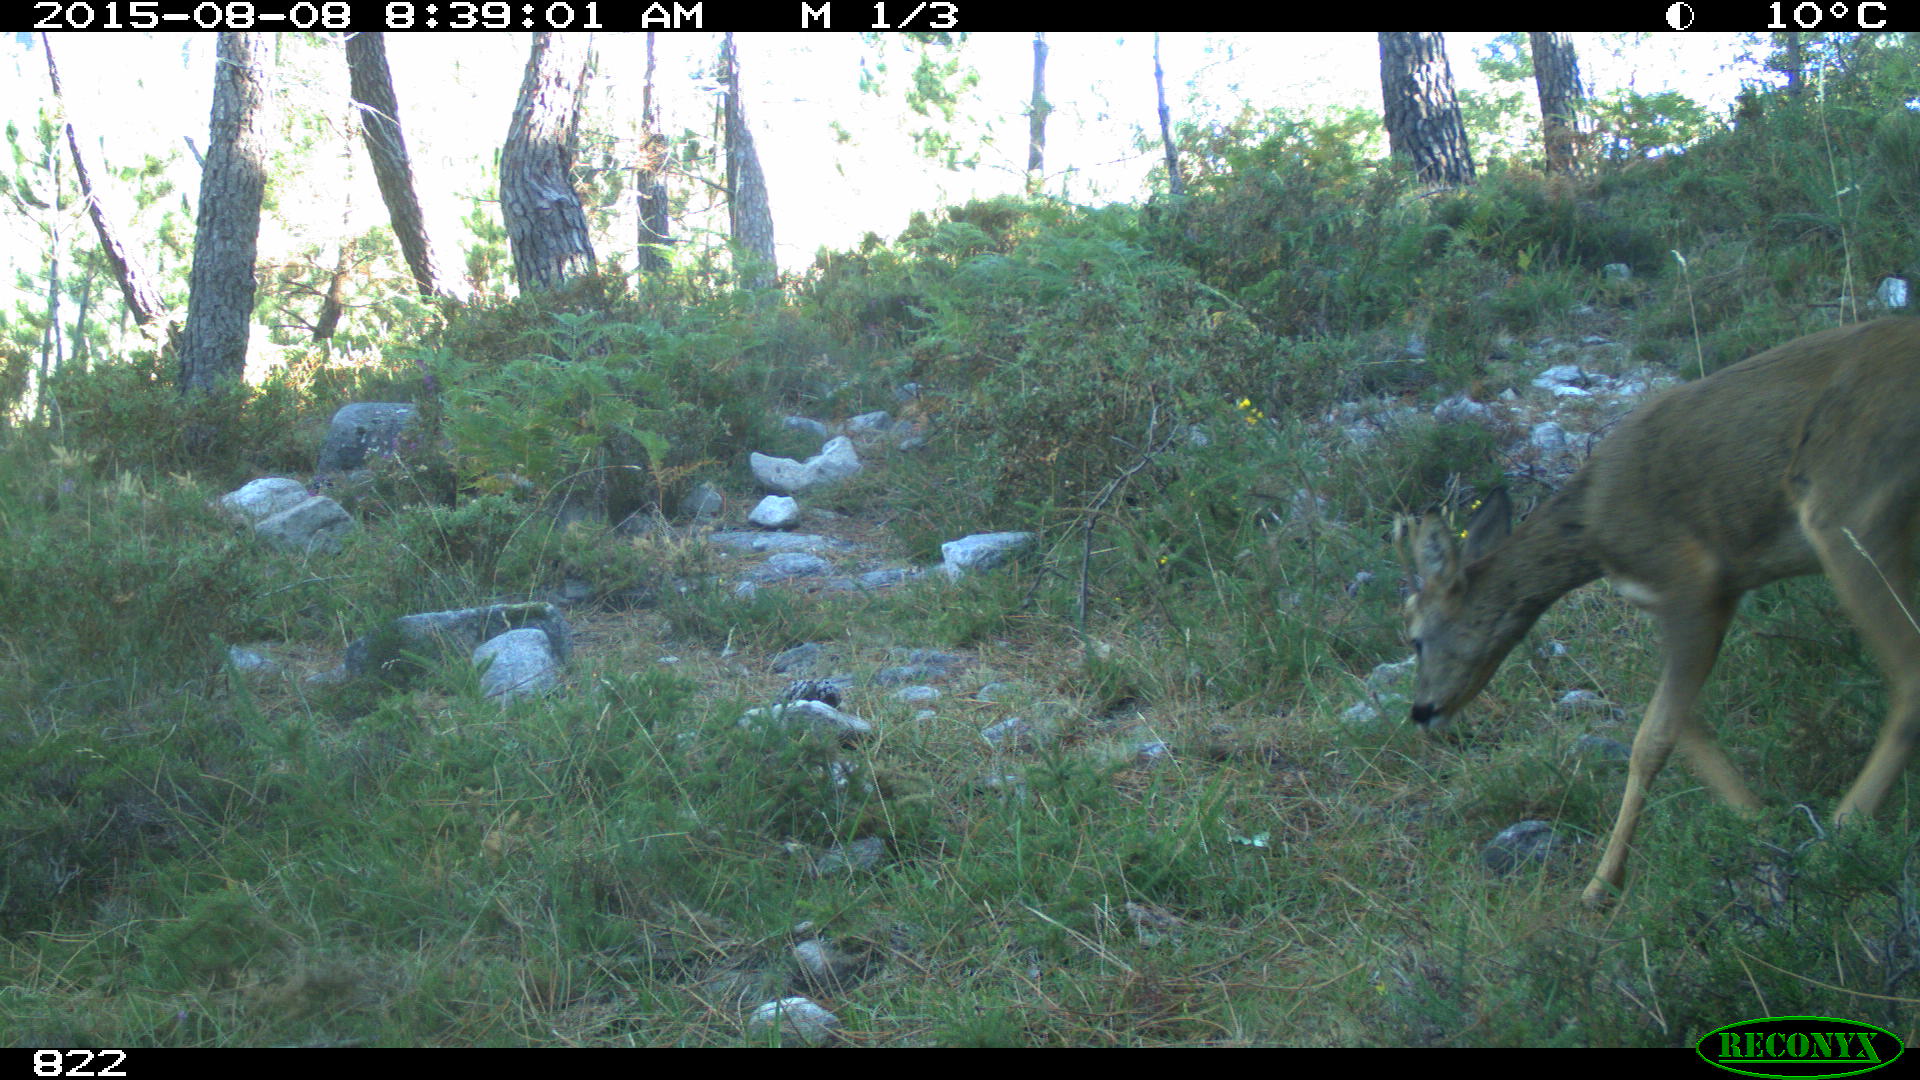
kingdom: Animalia
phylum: Chordata
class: Mammalia
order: Artiodactyla
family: Cervidae
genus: Capreolus
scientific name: Capreolus capreolus
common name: Western roe deer
